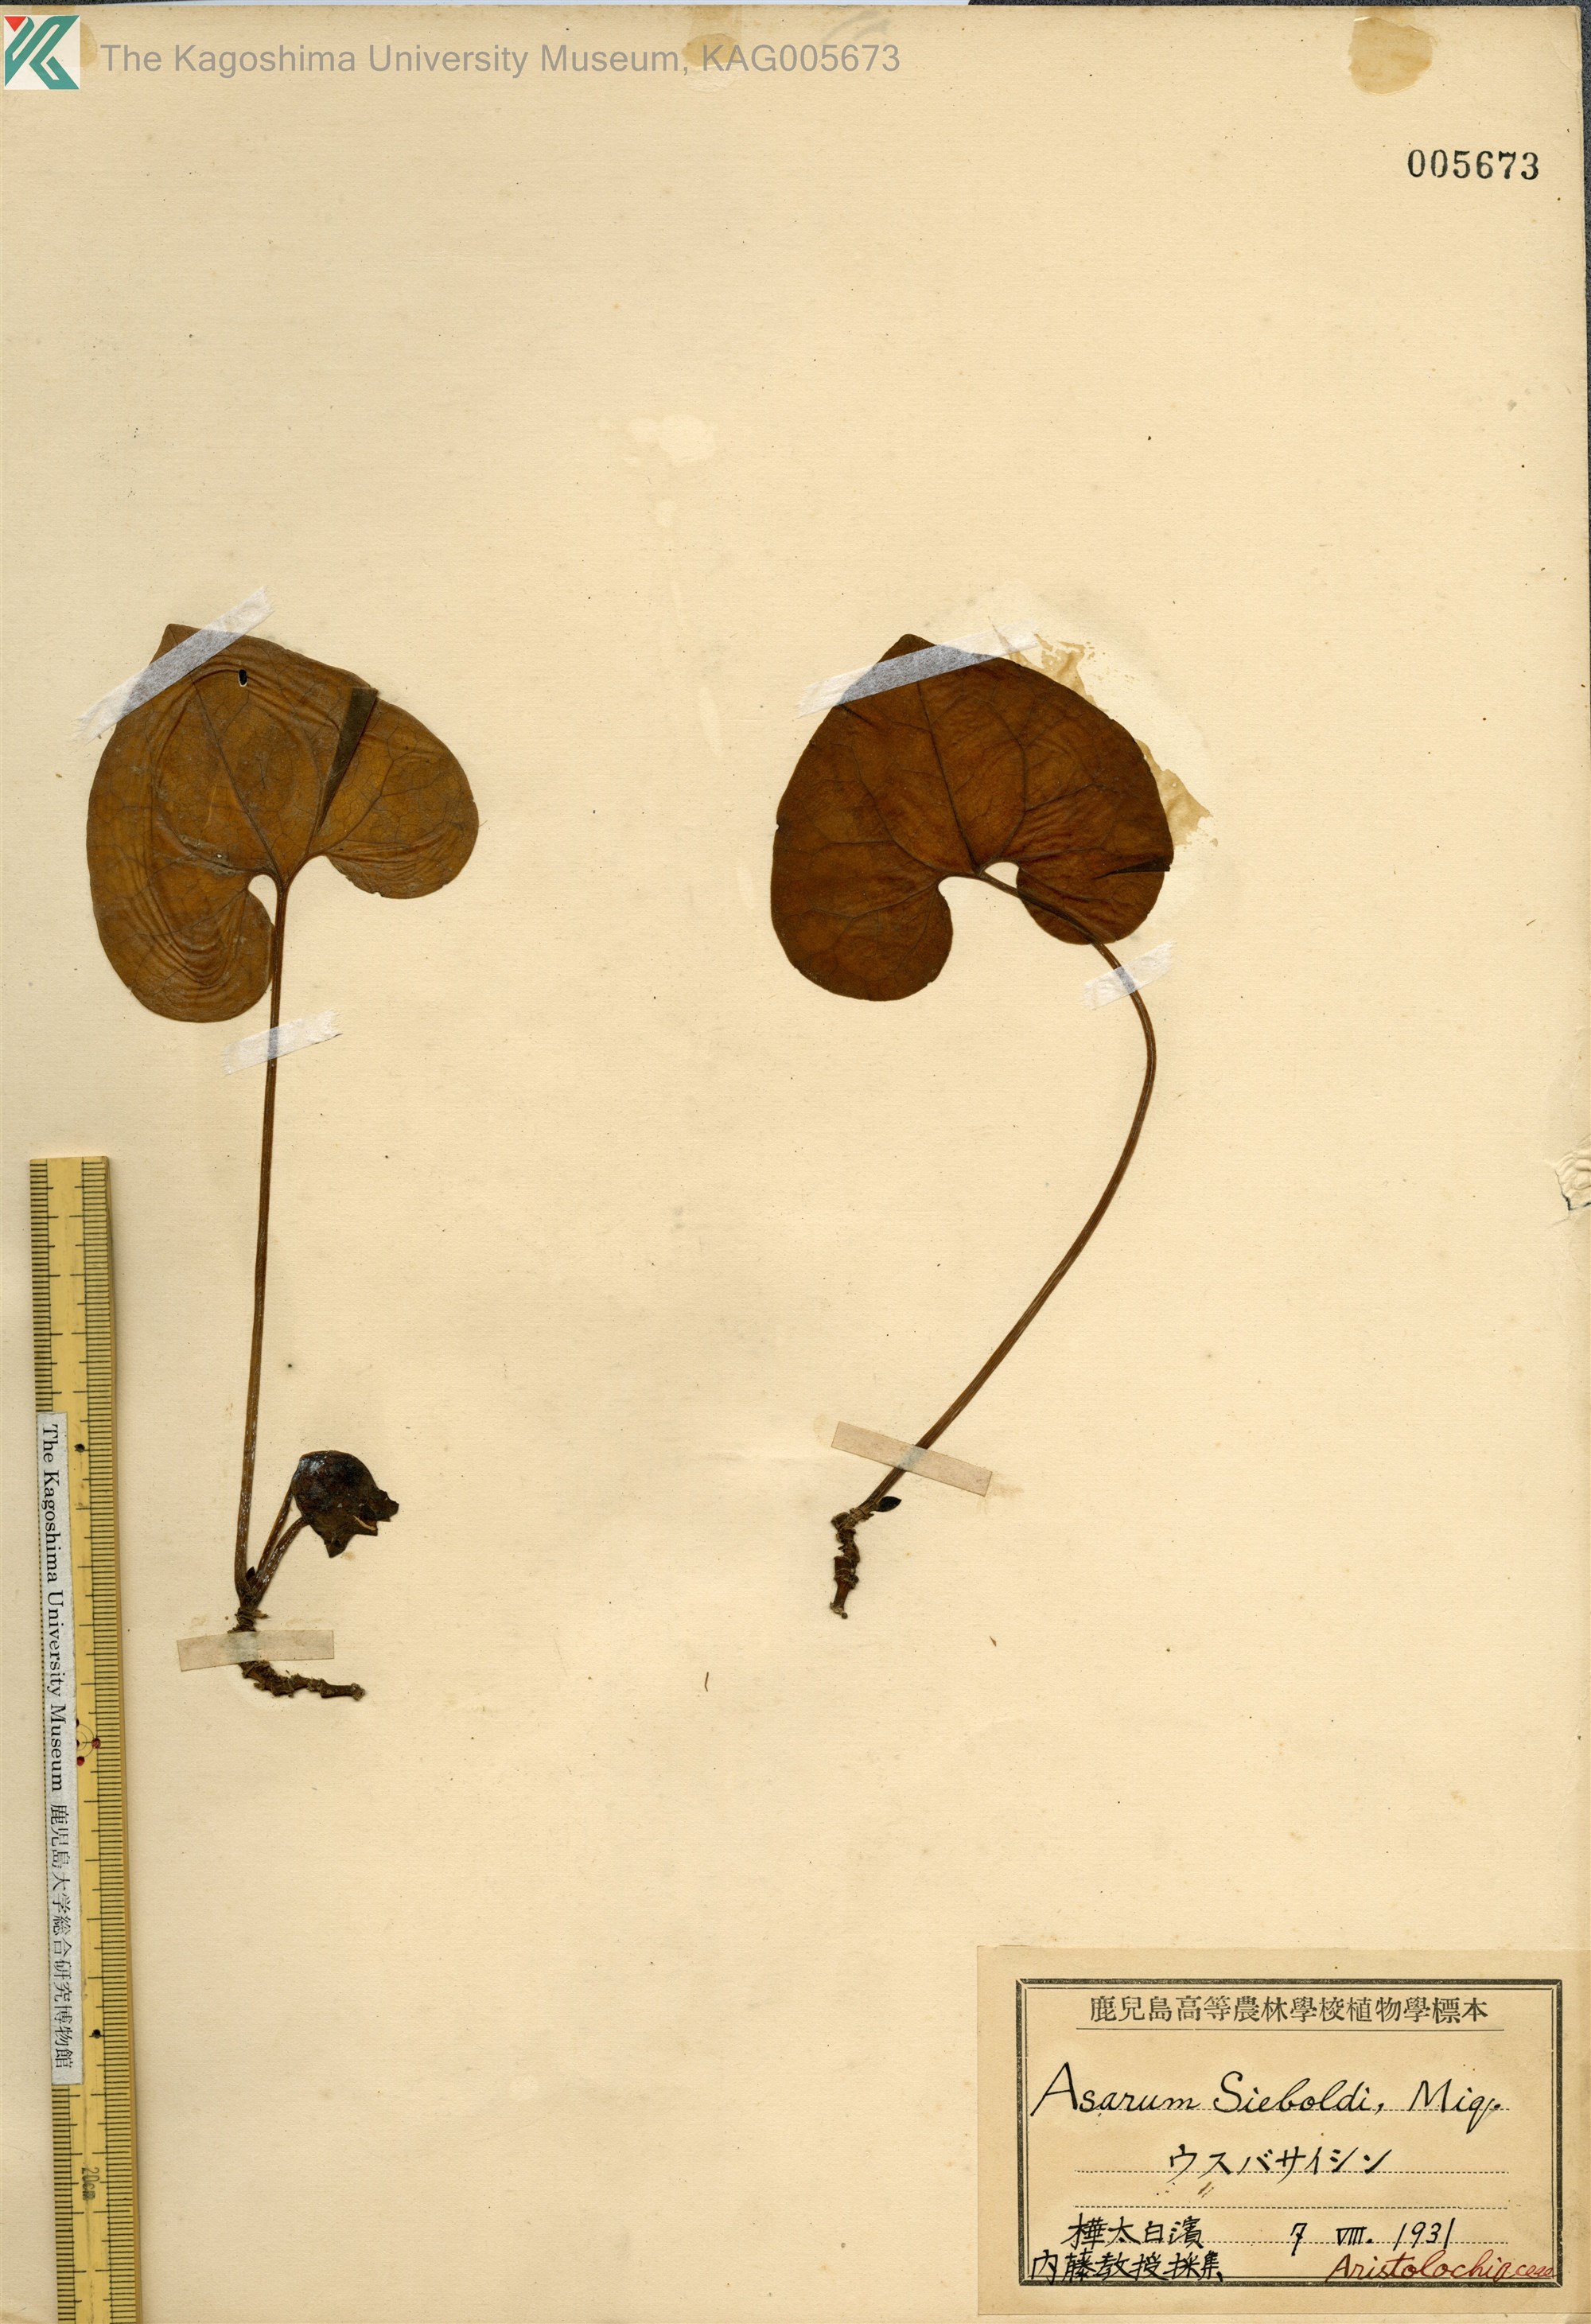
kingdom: Plantae
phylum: Tracheophyta
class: Magnoliopsida
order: Piperales
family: Aristolochiaceae
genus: Asarum
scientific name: Asarum sieboldii
